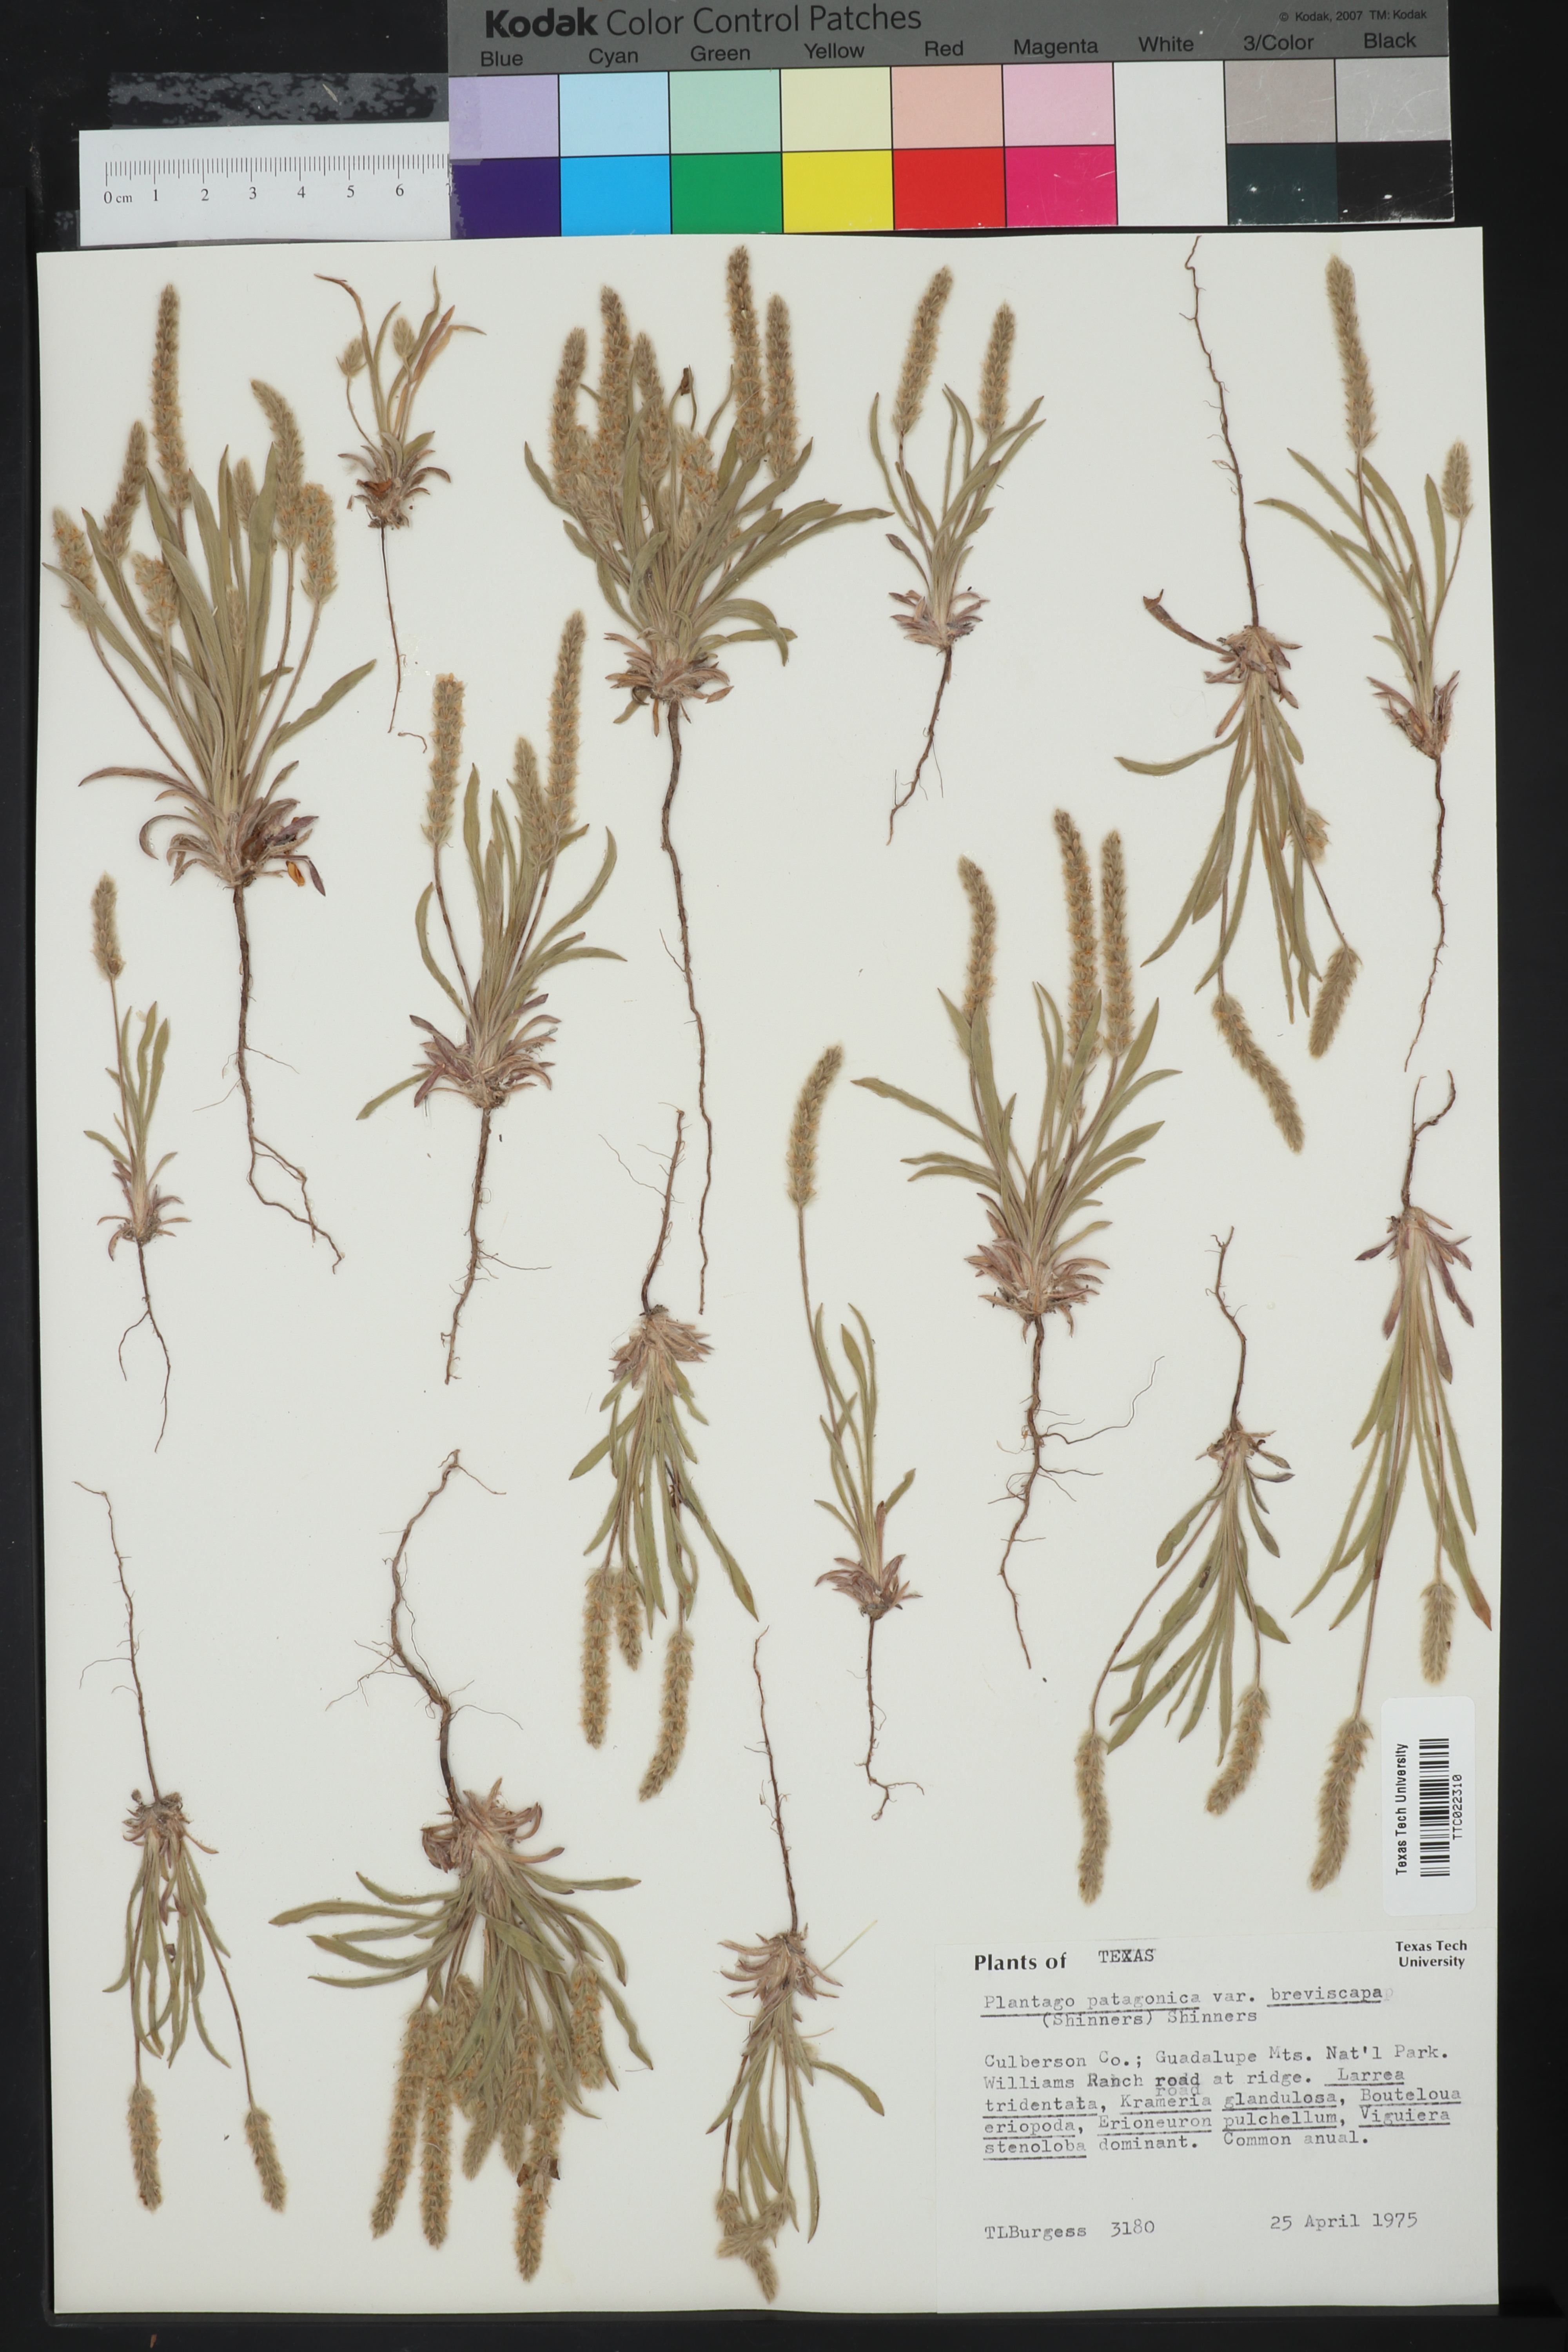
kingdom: Plantae
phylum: Tracheophyta
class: Magnoliopsida
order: Lamiales
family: Plantaginaceae
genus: Plantago
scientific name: Plantago patagonica
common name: Patagonia indian-wheat
